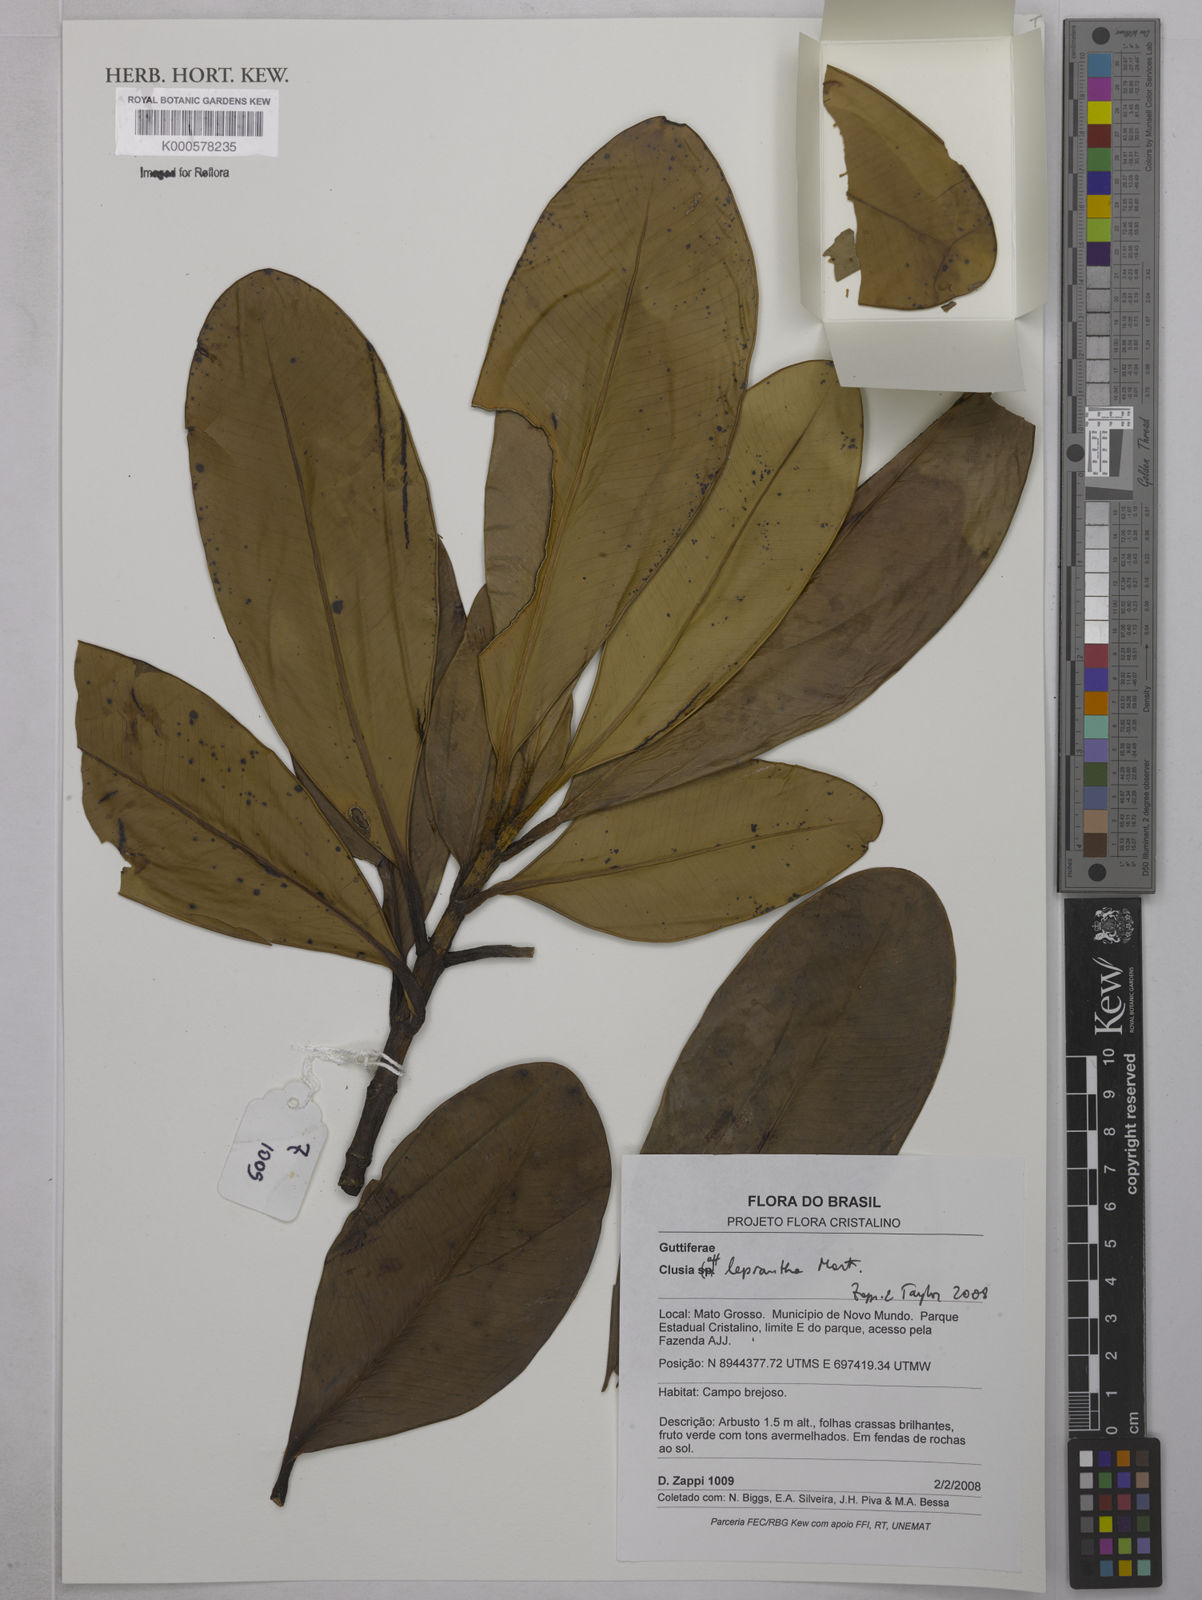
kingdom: Plantae
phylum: Tracheophyta
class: Magnoliopsida
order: Malpighiales
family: Clusiaceae
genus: Clusia
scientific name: Clusia leprantha
